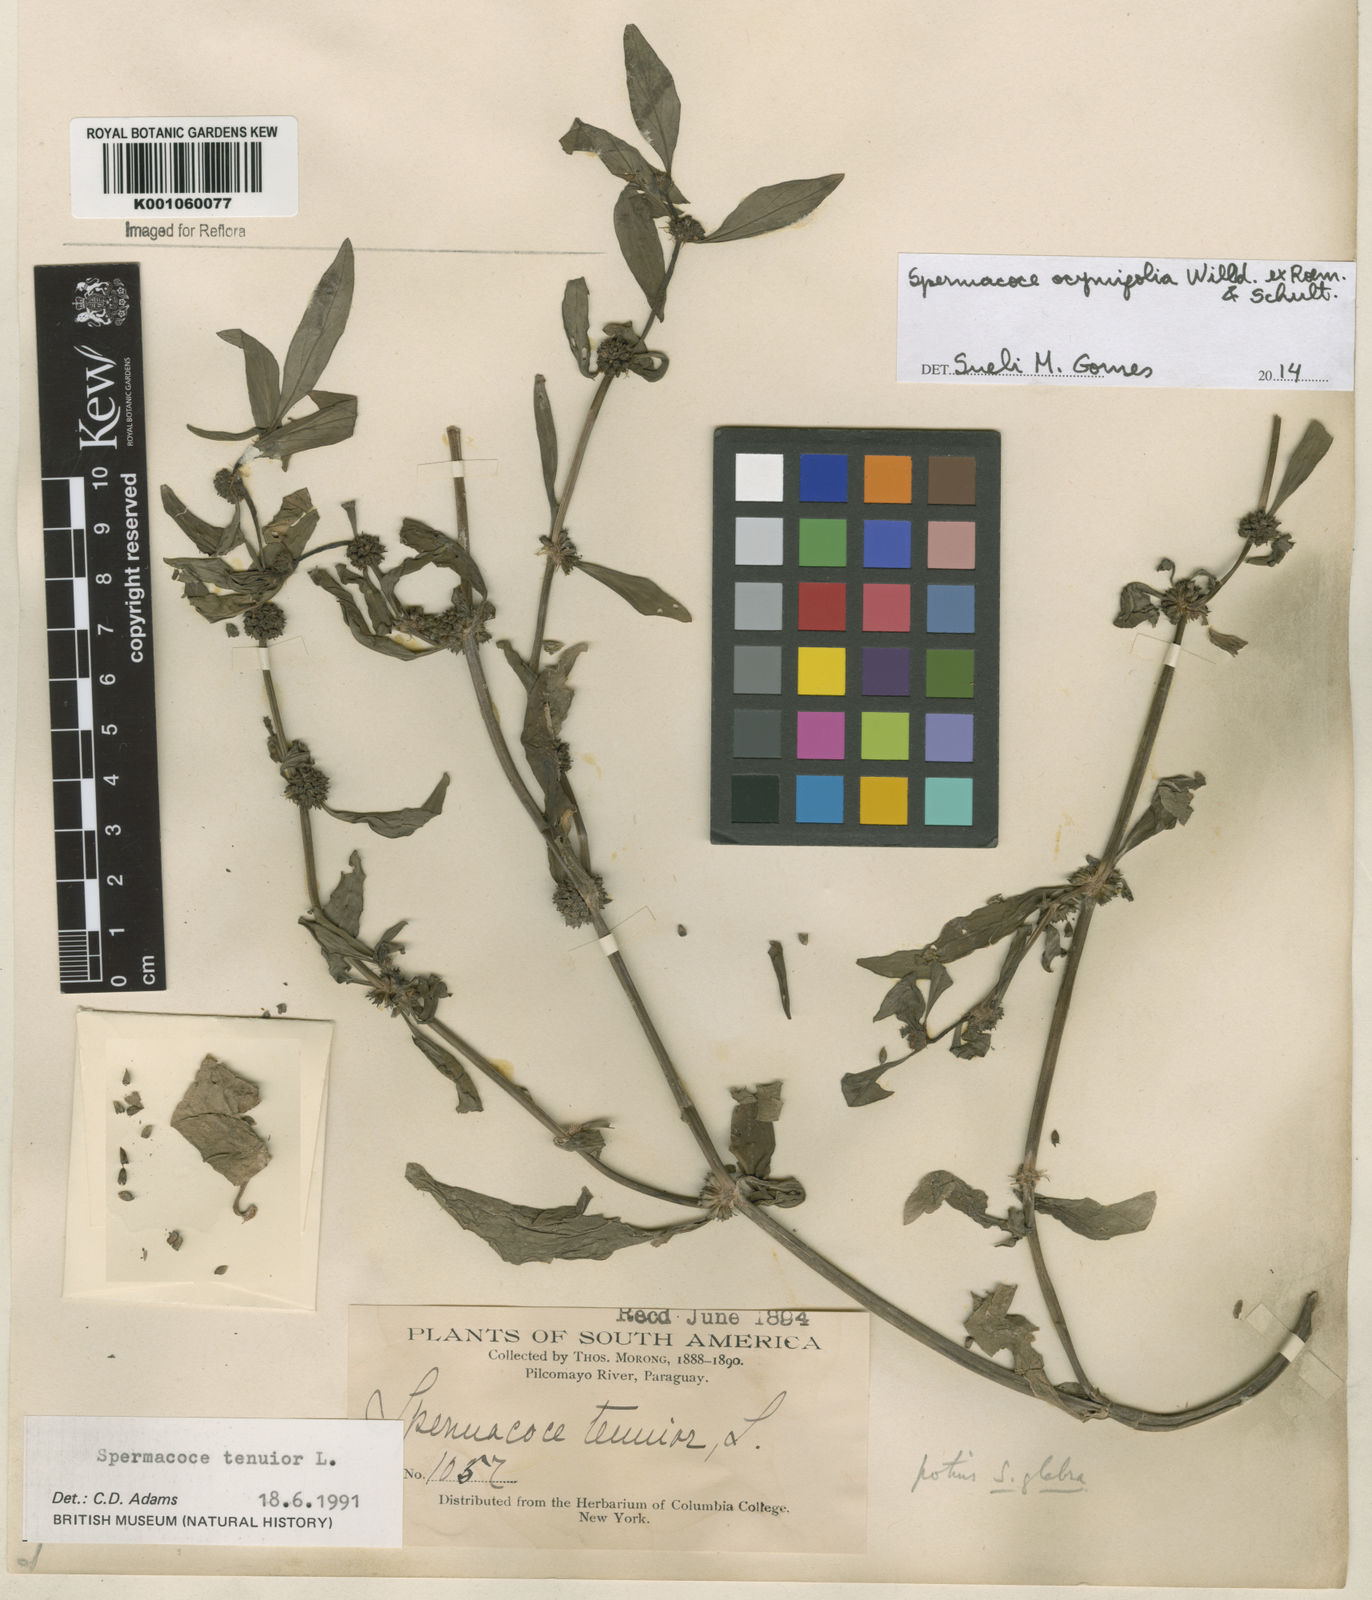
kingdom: Plantae
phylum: Tracheophyta
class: Magnoliopsida
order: Gentianales
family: Rubiaceae
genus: Spermacoce
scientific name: Spermacoce
